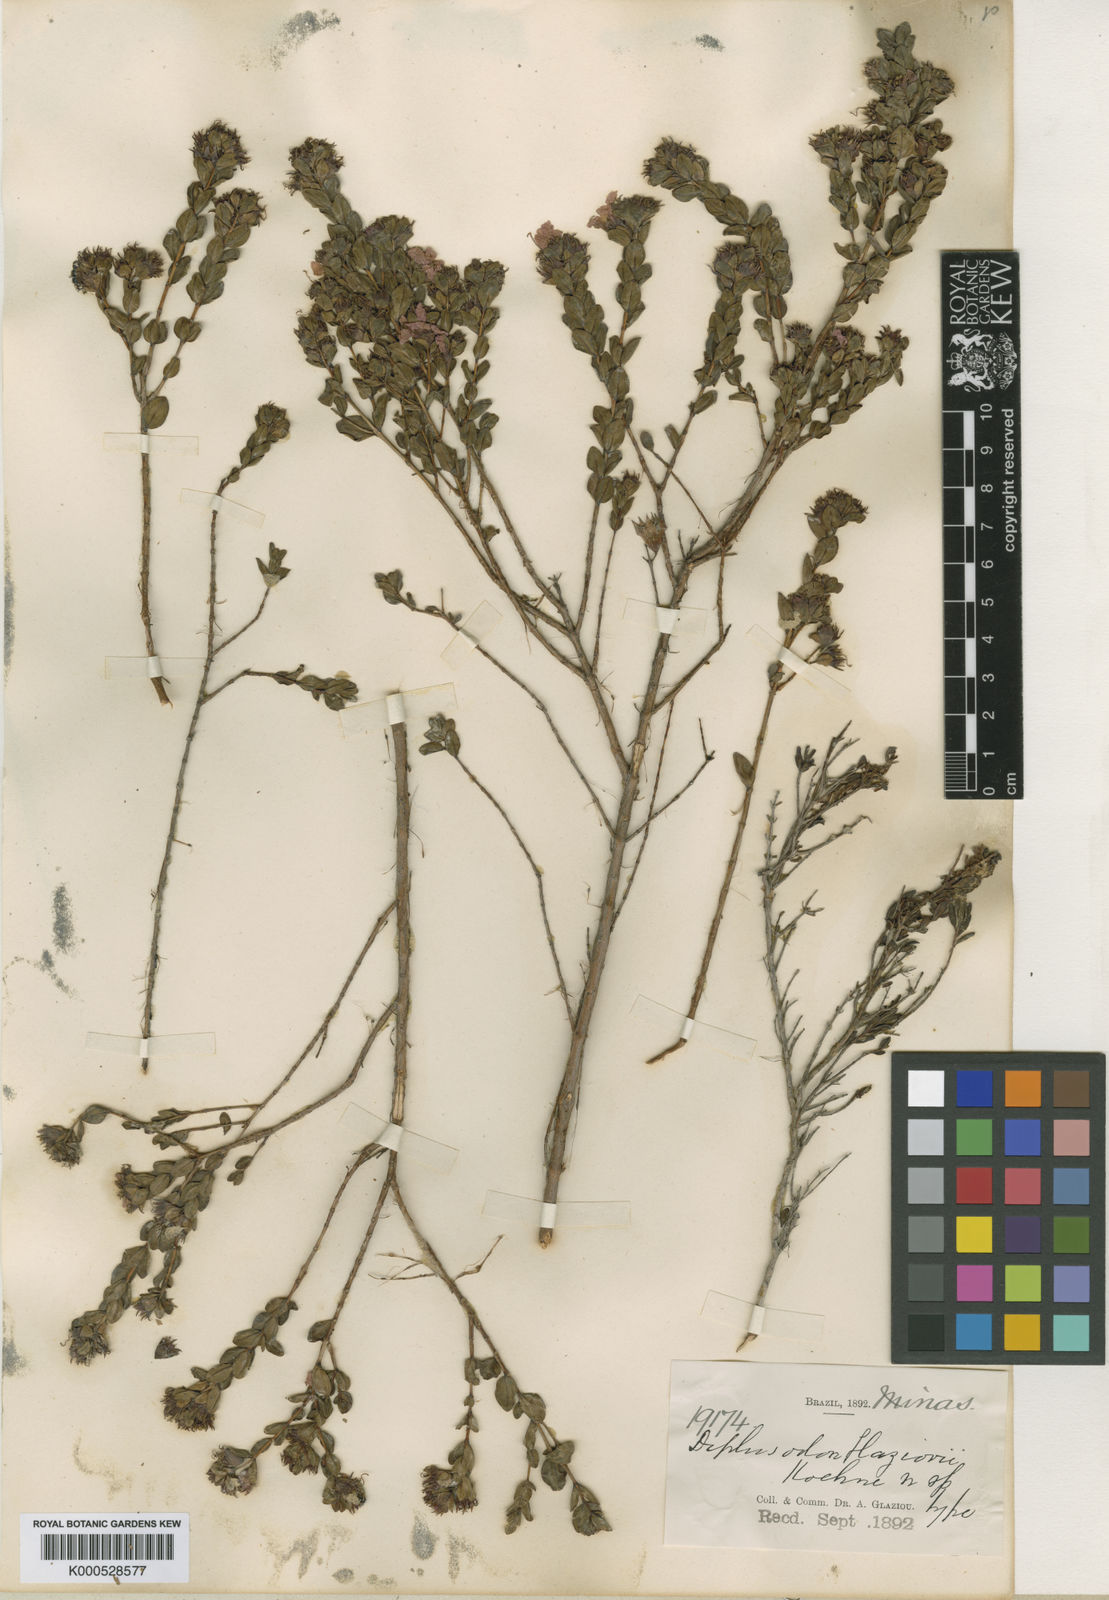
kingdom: Plantae
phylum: Tracheophyta
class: Magnoliopsida
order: Myrtales
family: Lythraceae
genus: Diplusodon
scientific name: Diplusodon glaziovii
